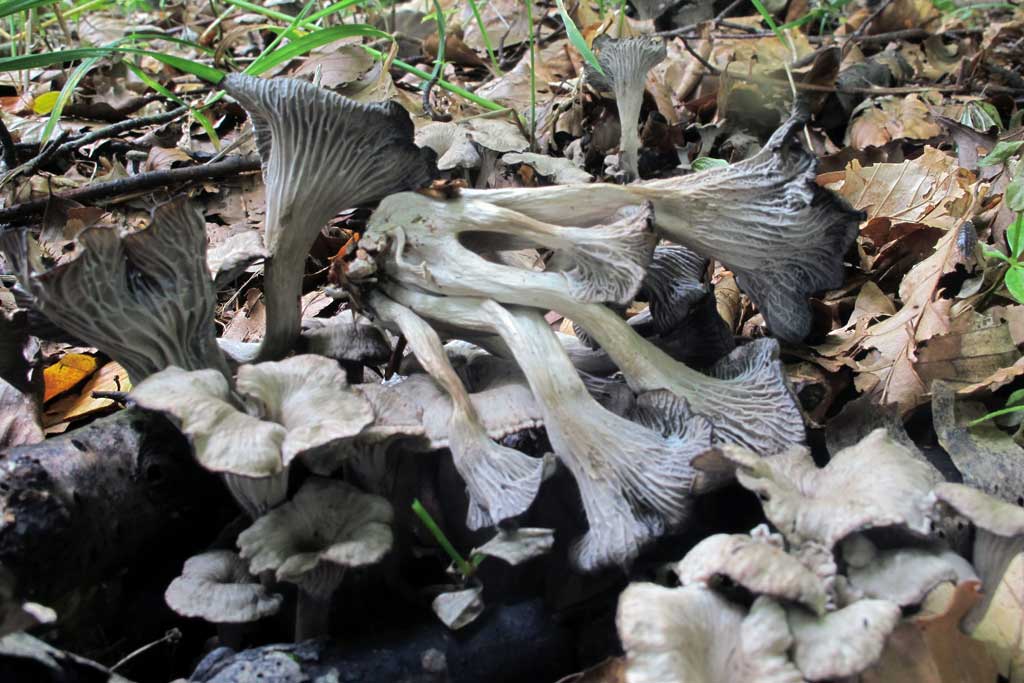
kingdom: Fungi
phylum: Basidiomycota
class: Agaricomycetes
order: Cantharellales
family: Hydnaceae
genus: Cantharellus
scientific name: Cantharellus cinereus
